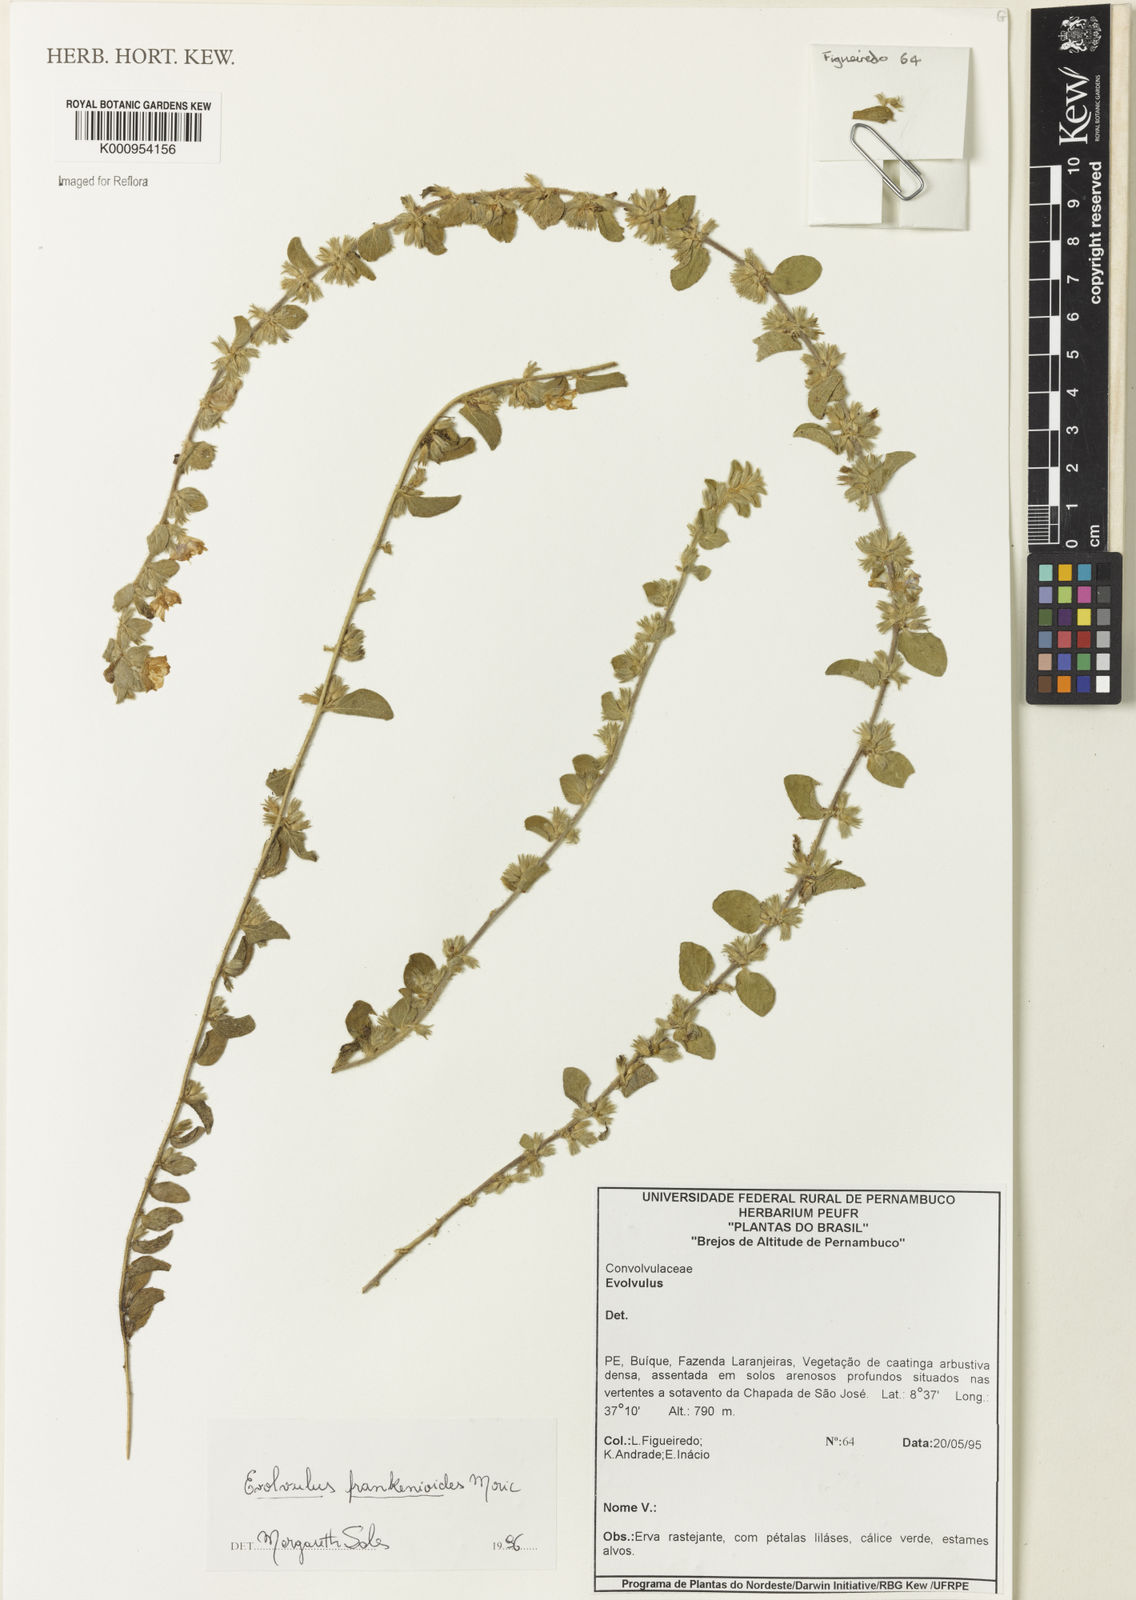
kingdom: Plantae
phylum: Tracheophyta
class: Magnoliopsida
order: Solanales
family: Convolvulaceae
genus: Evolvulus
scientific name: Evolvulus frankenioides
